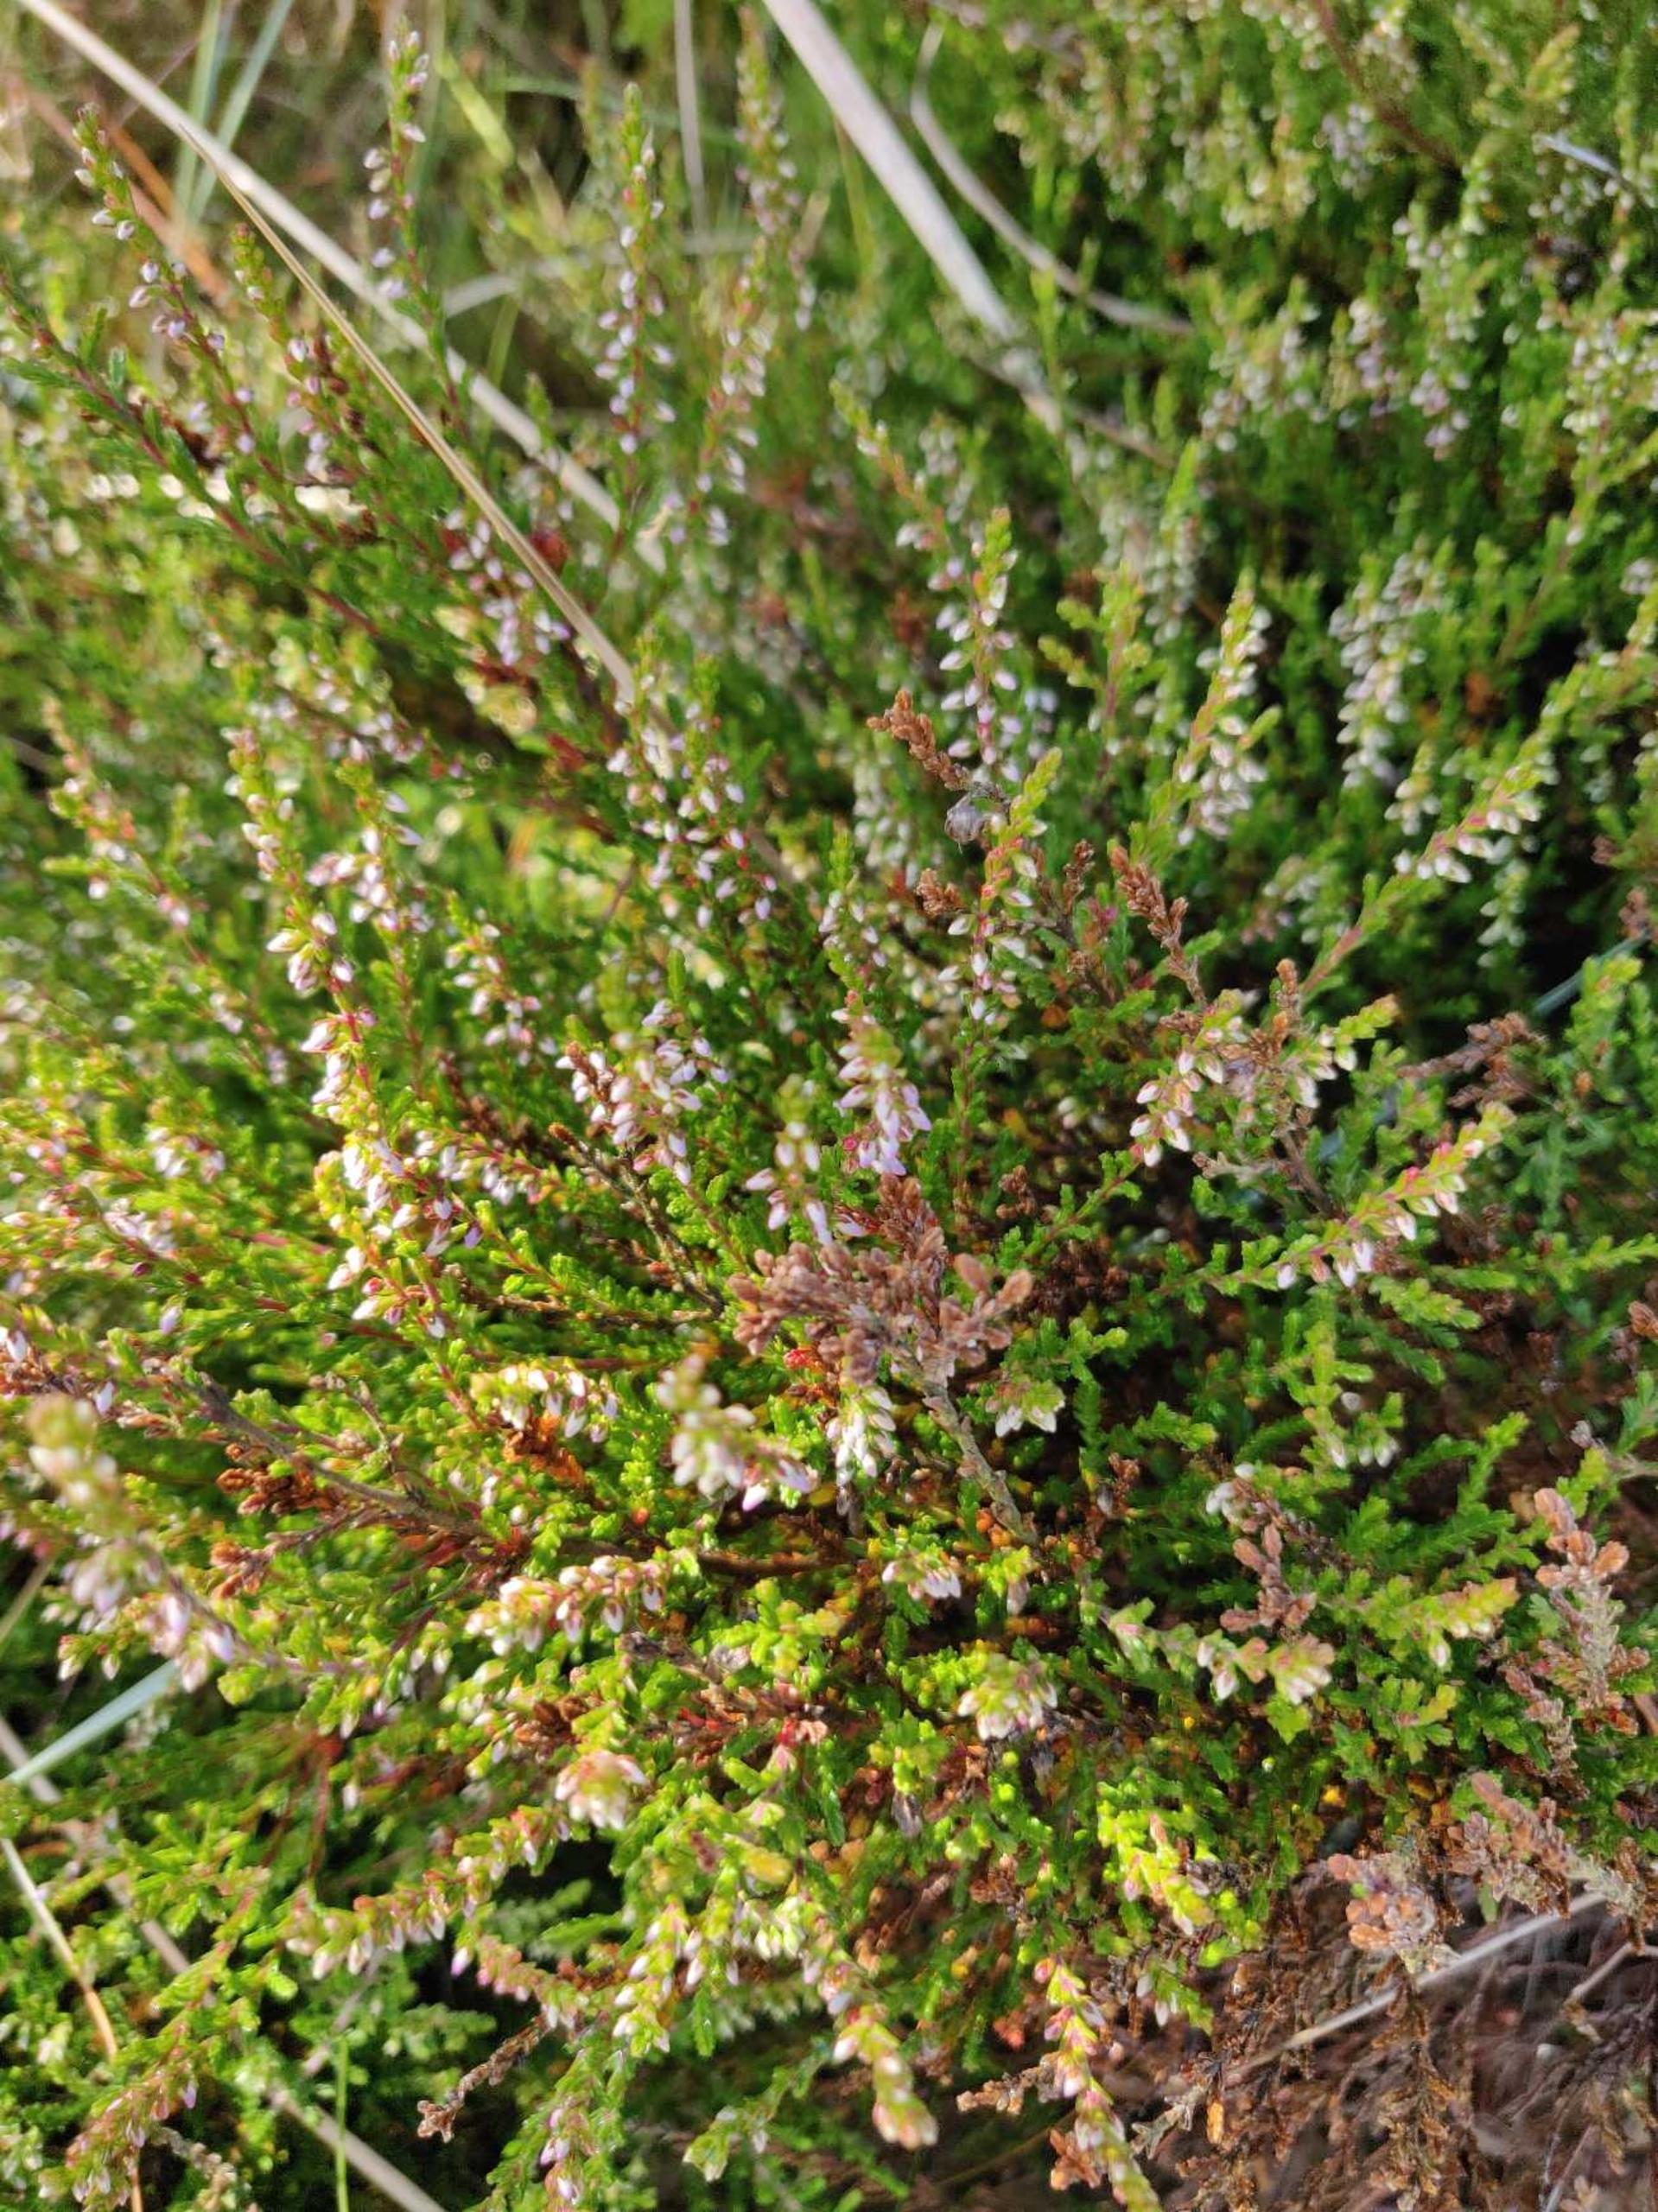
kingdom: Plantae
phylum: Tracheophyta
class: Magnoliopsida
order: Ericales
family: Ericaceae
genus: Calluna
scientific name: Calluna vulgaris
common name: Hedelyng
